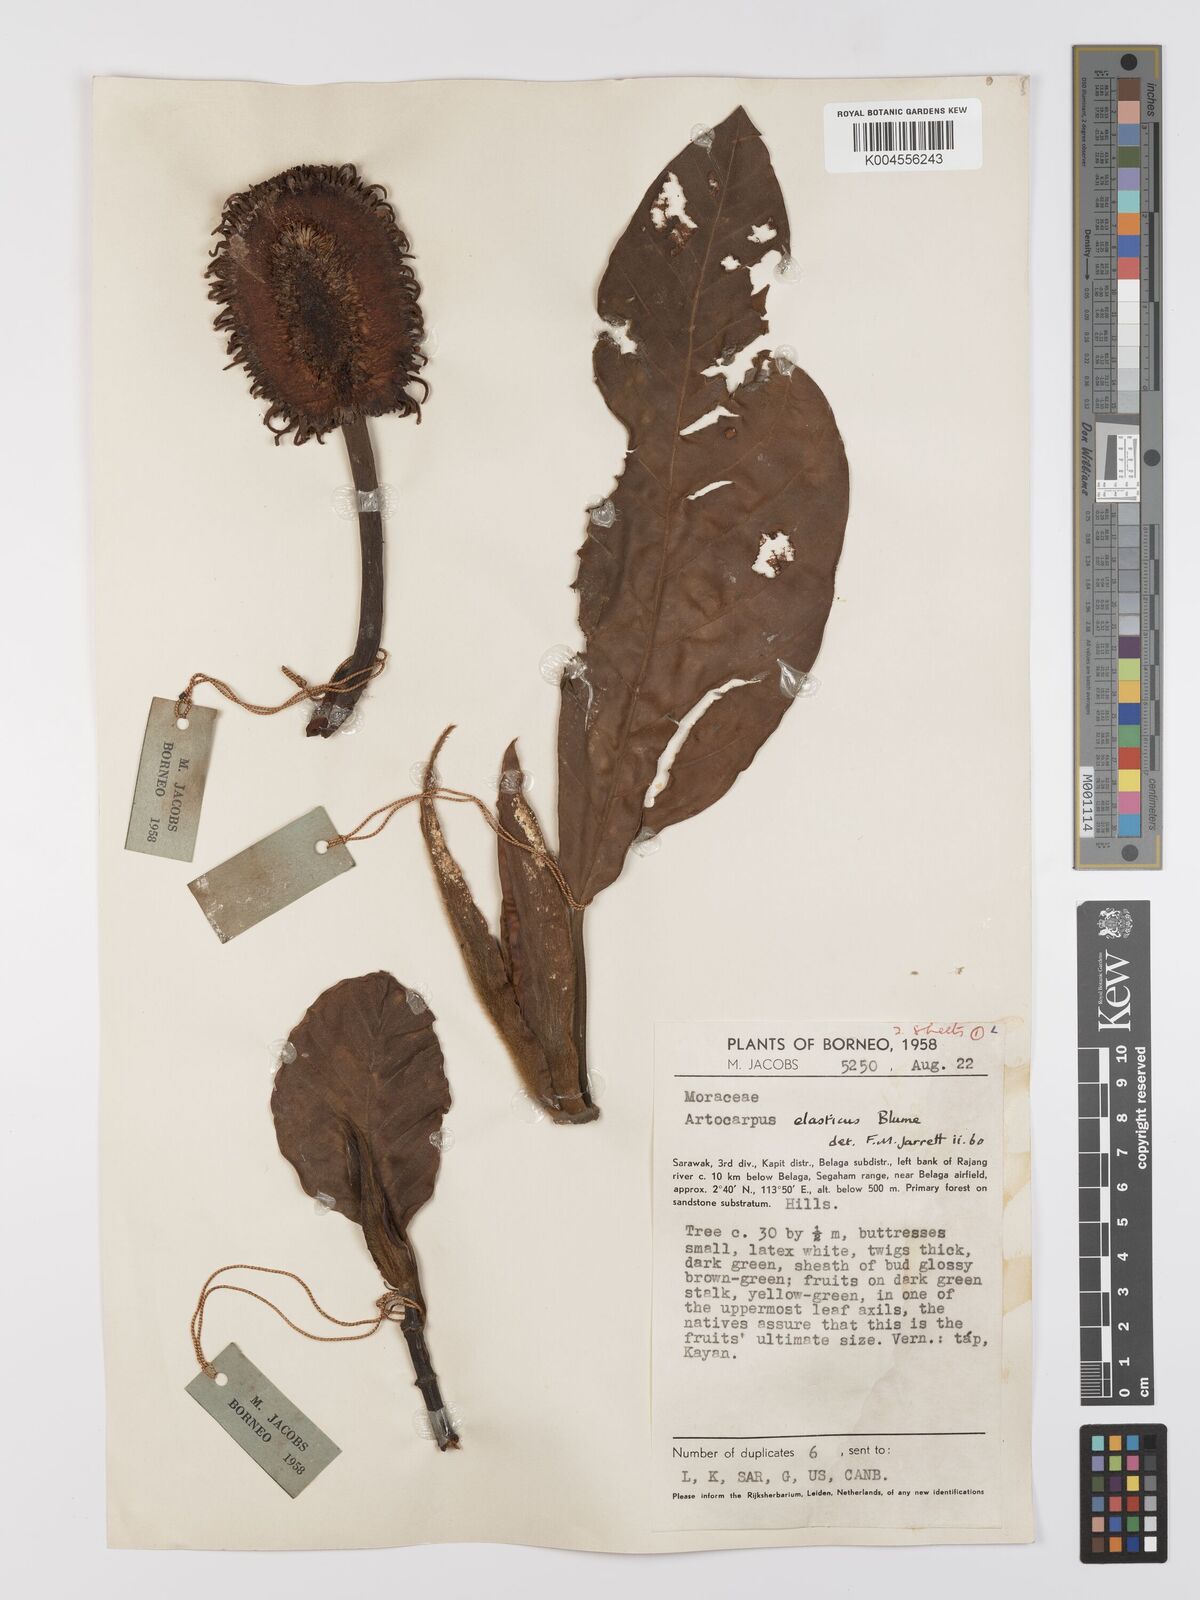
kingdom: Plantae
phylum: Tracheophyta
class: Magnoliopsida
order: Rosales
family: Moraceae
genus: Artocarpus
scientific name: Artocarpus elasticus
